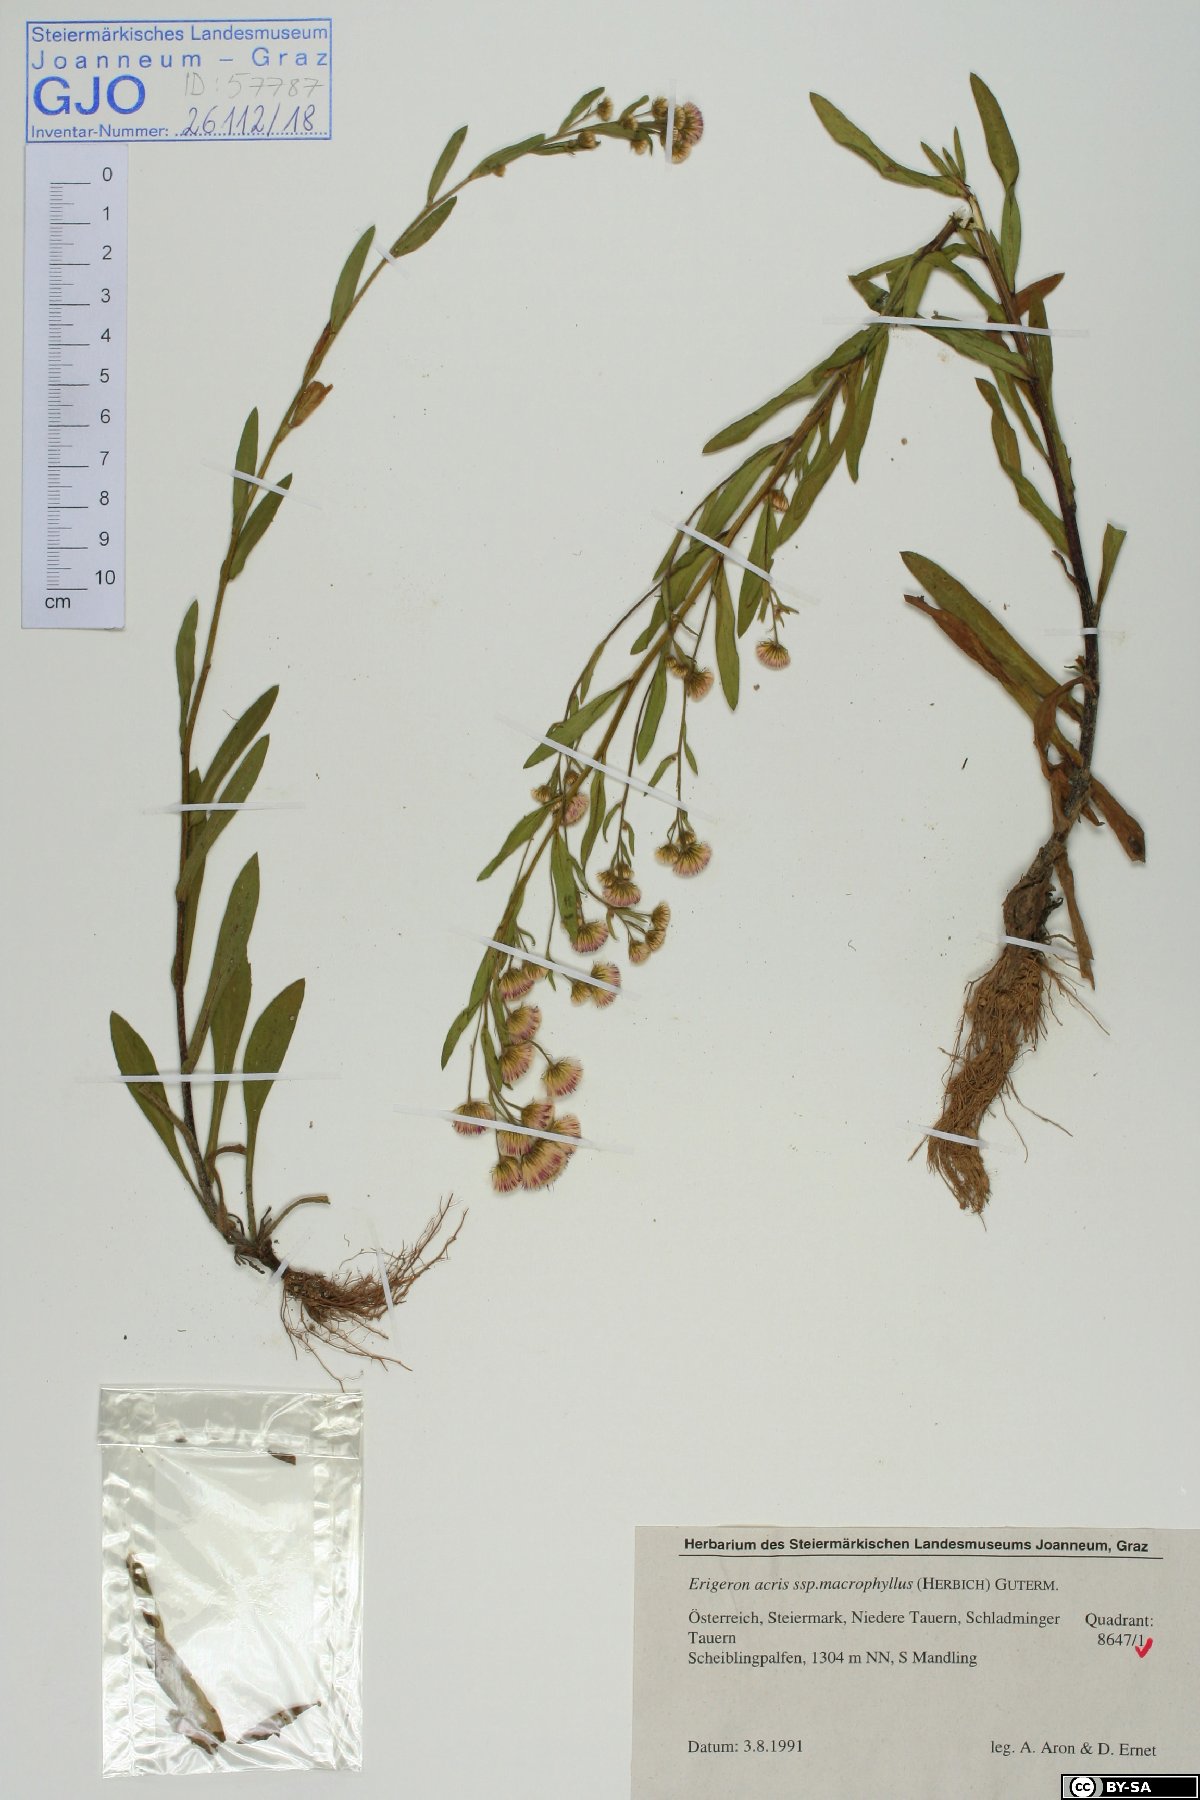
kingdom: Plantae
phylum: Tracheophyta
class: Magnoliopsida
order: Asterales
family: Asteraceae
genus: Erigeron
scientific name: Erigeron macrophyllus
